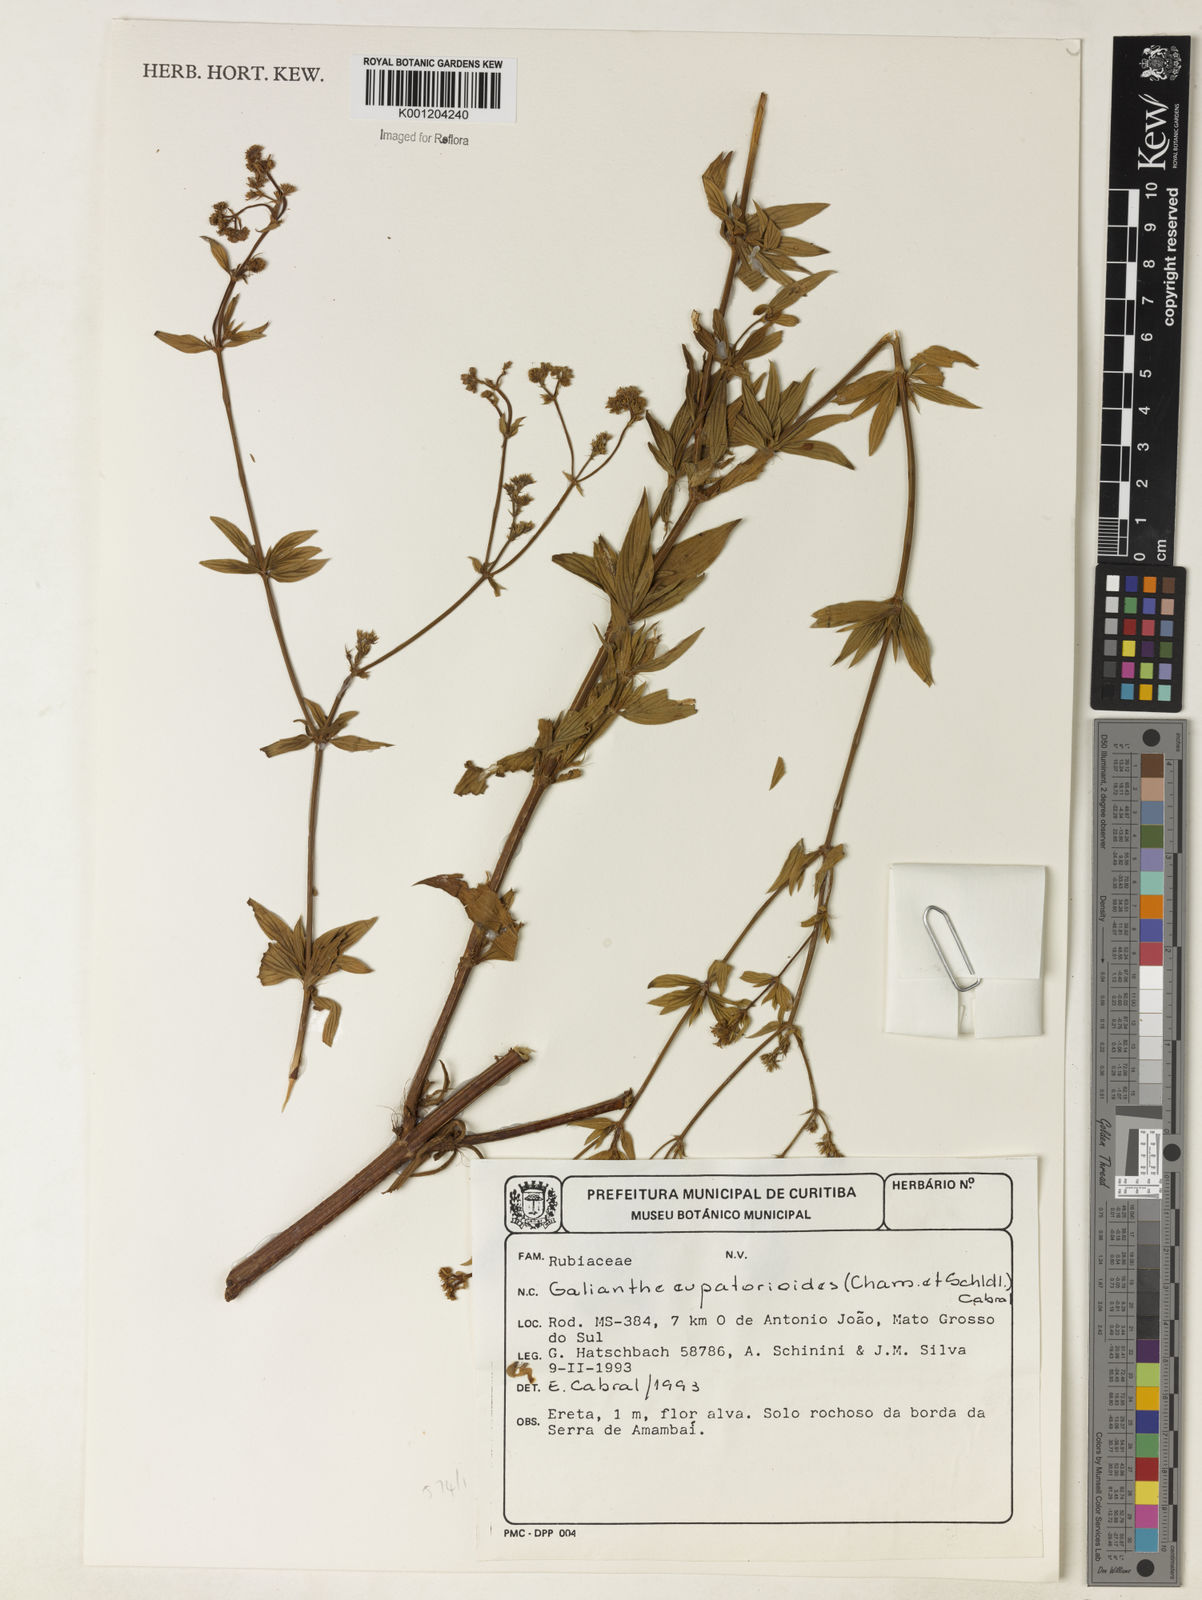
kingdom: Plantae
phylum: Tracheophyta
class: Magnoliopsida
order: Gentianales
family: Rubiaceae
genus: Galianthe
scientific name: Galianthe eupatorioides
